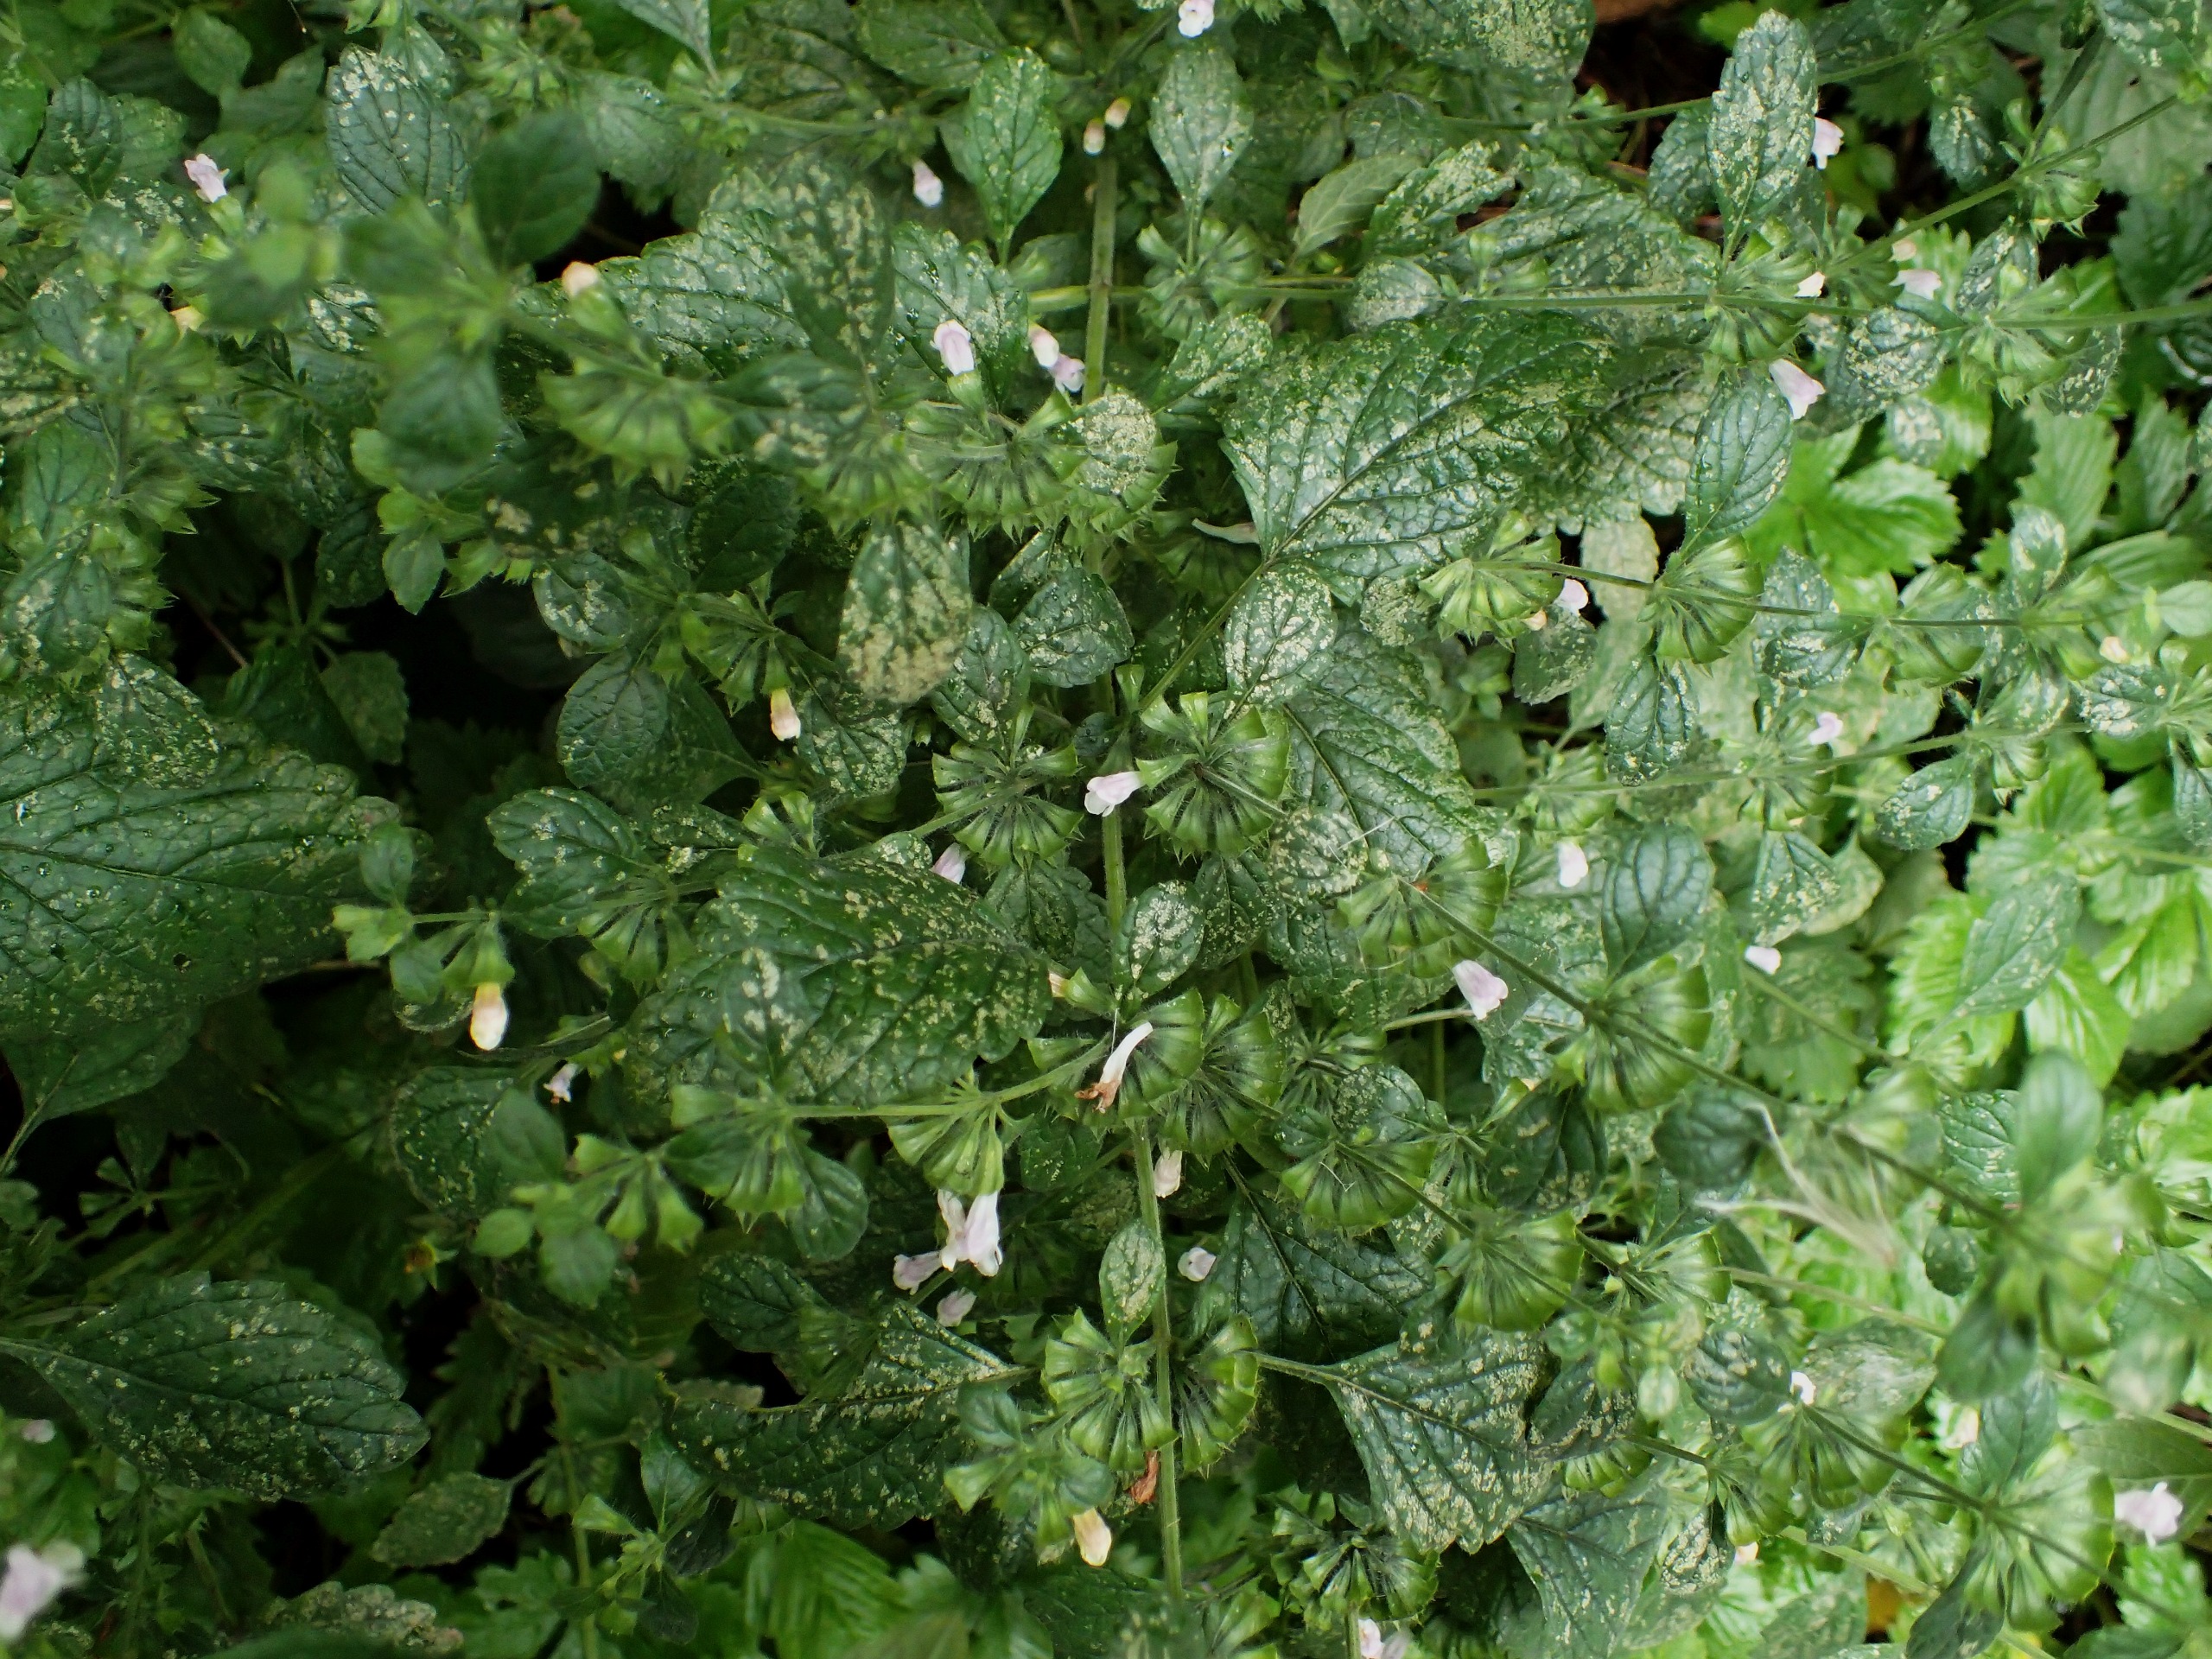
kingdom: Plantae
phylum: Tracheophyta
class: Magnoliopsida
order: Lamiales
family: Lamiaceae
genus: Melissa
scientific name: Melissa officinalis
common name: Citronmelisse
